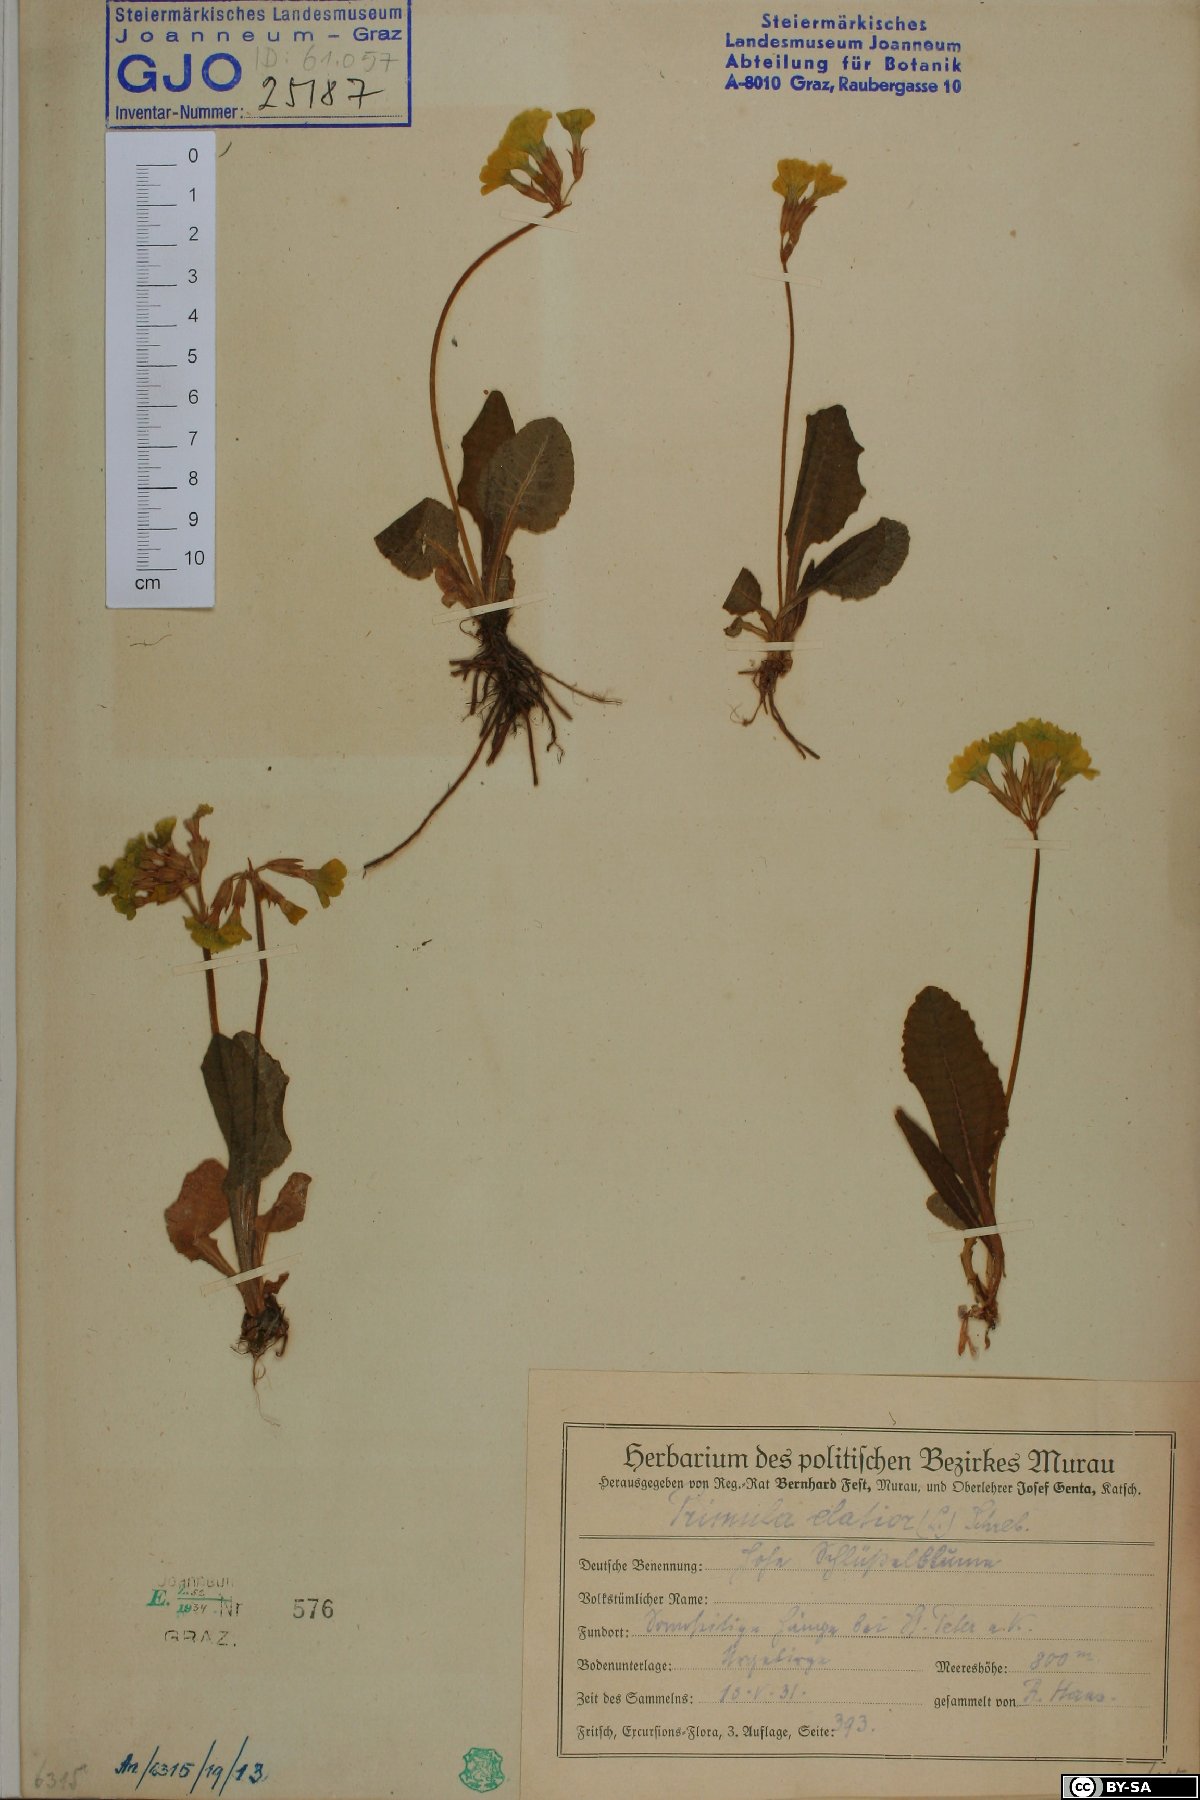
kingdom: Plantae
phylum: Tracheophyta
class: Magnoliopsida
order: Ericales
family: Primulaceae
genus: Primula
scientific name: Primula elatior
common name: Oxlip
